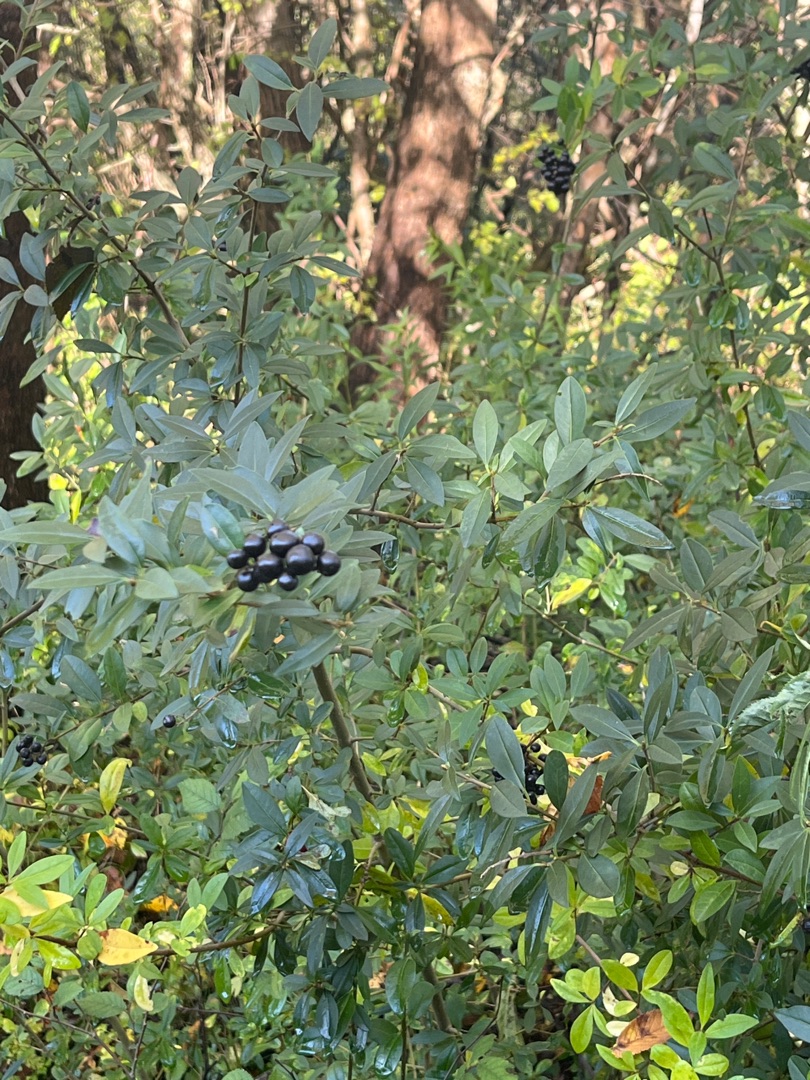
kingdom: Plantae
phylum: Tracheophyta
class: Magnoliopsida
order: Lamiales
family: Oleaceae
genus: Ligustrum
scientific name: Ligustrum vulgare
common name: Liguster
